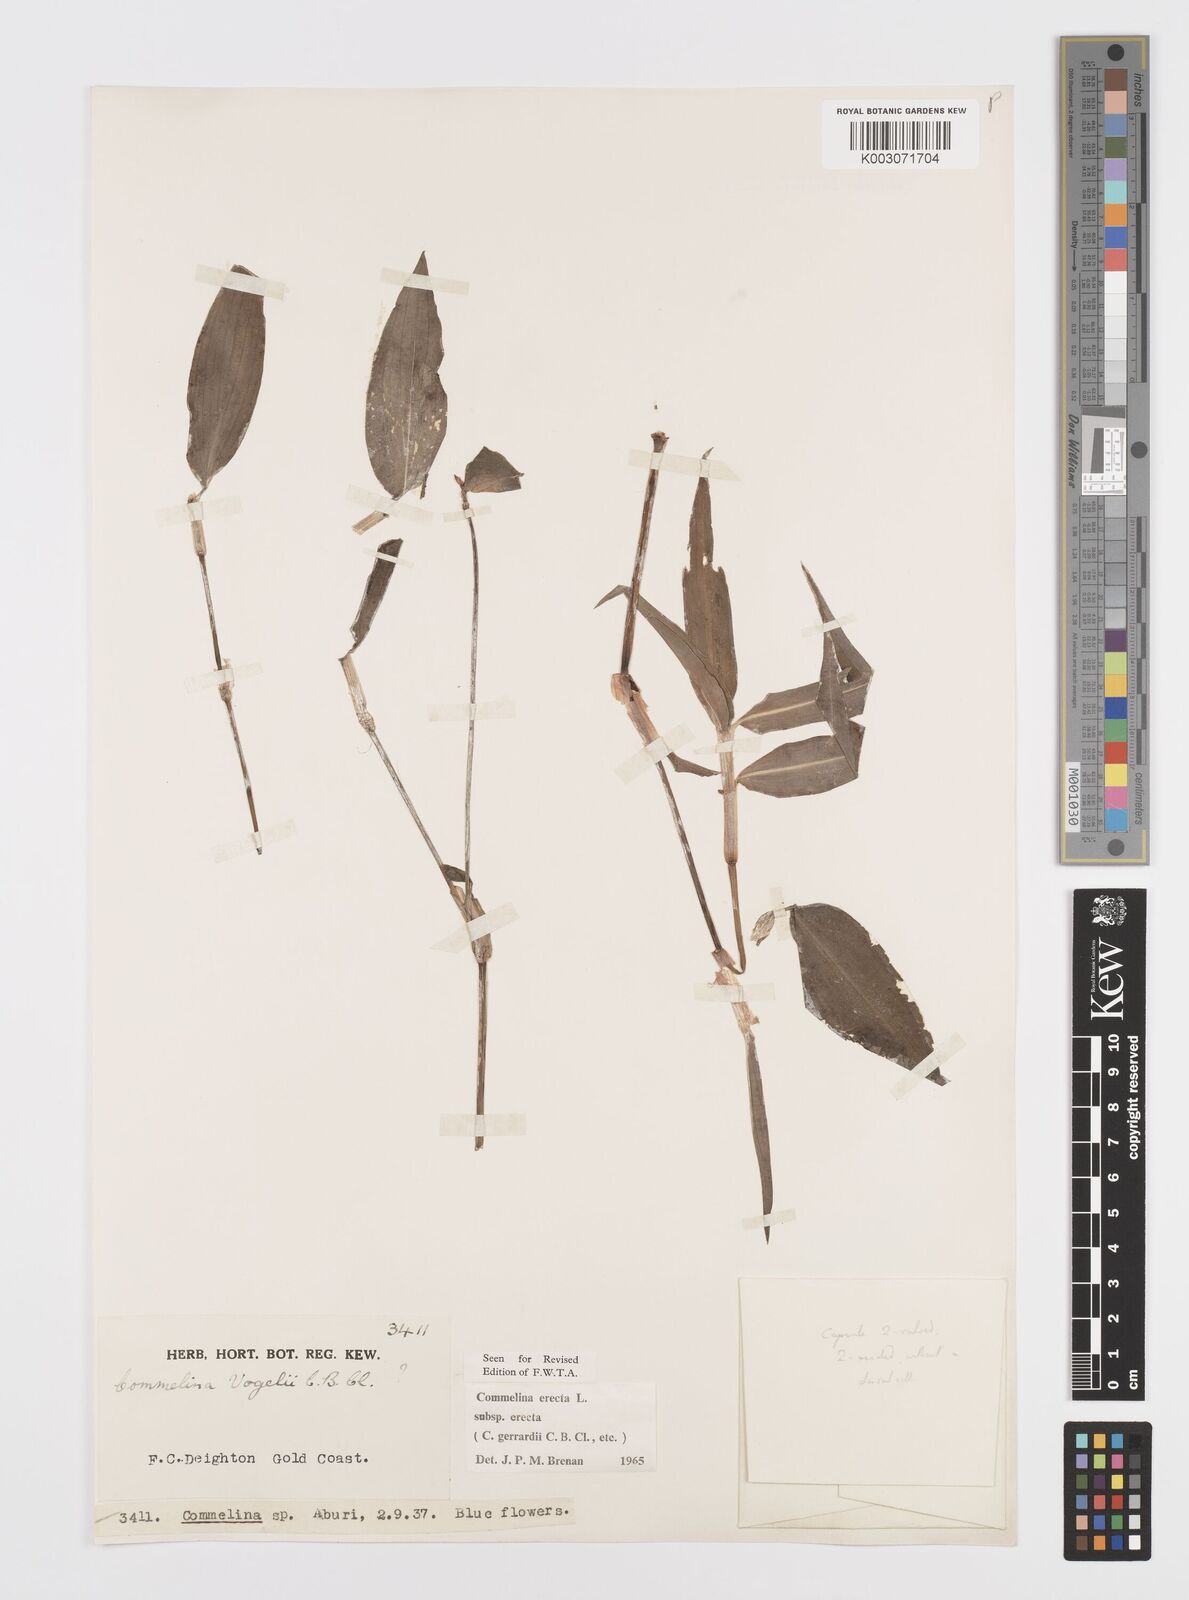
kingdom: Plantae
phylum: Tracheophyta
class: Liliopsida
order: Commelinales
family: Commelinaceae
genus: Commelina
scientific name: Commelina erecta
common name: Blousel blommetjie
